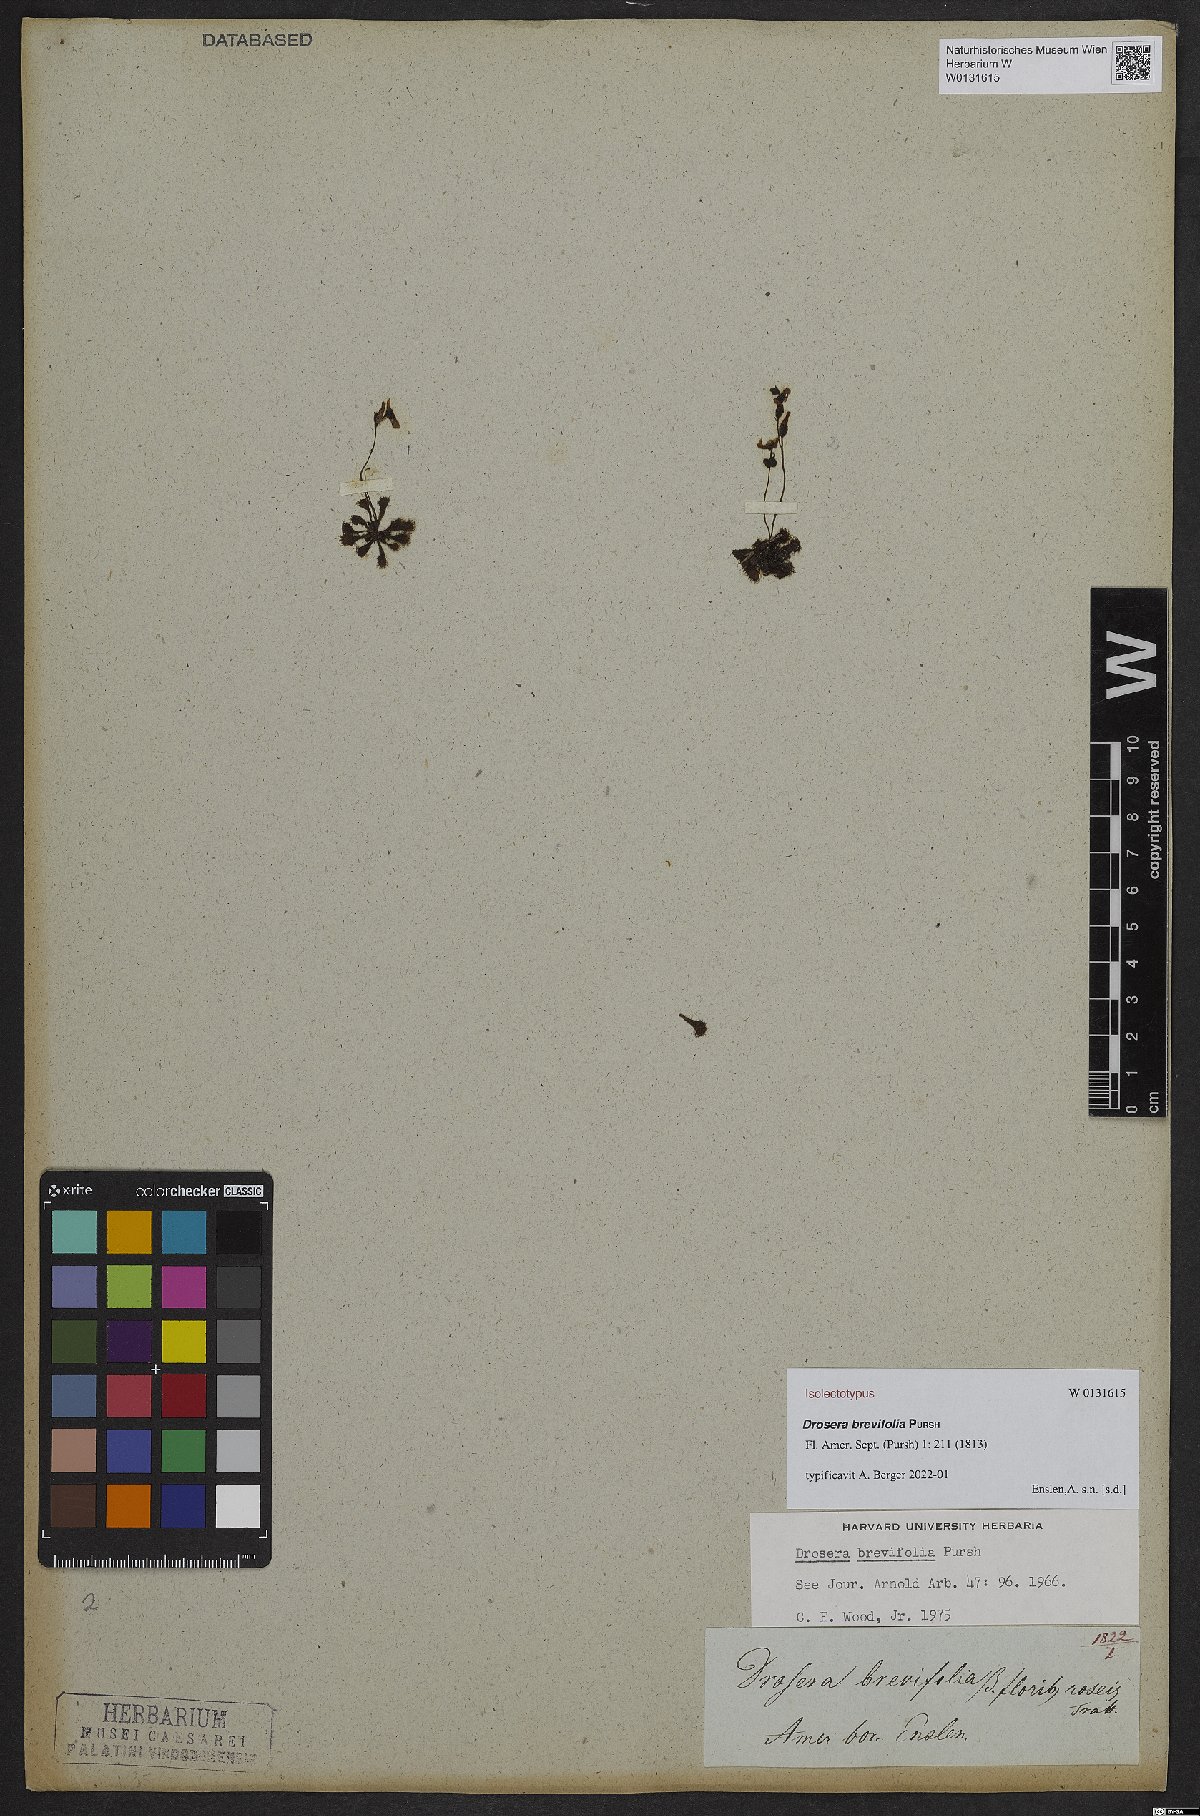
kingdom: Plantae
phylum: Tracheophyta
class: Magnoliopsida
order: Caryophyllales
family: Droseraceae
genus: Drosera
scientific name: Drosera brevifolia
